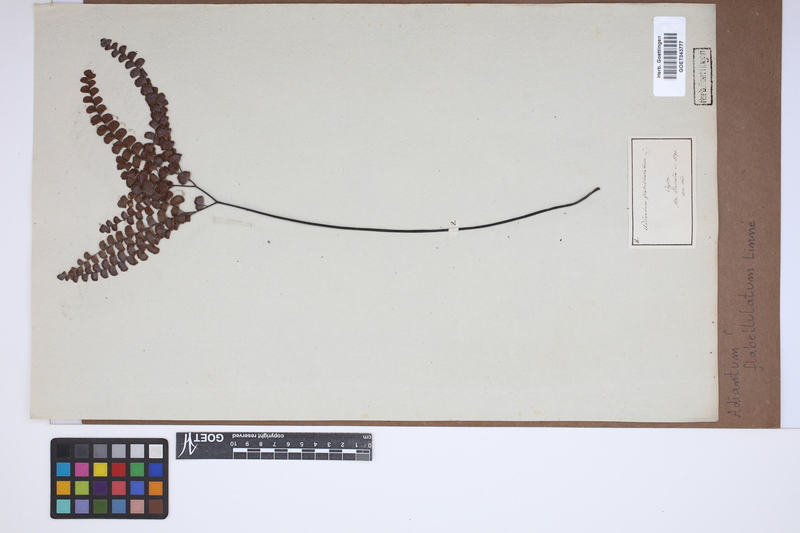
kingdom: Plantae
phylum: Tracheophyta
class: Polypodiopsida
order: Polypodiales
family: Pteridaceae
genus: Adiantum
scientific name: Adiantum flabellulatum
